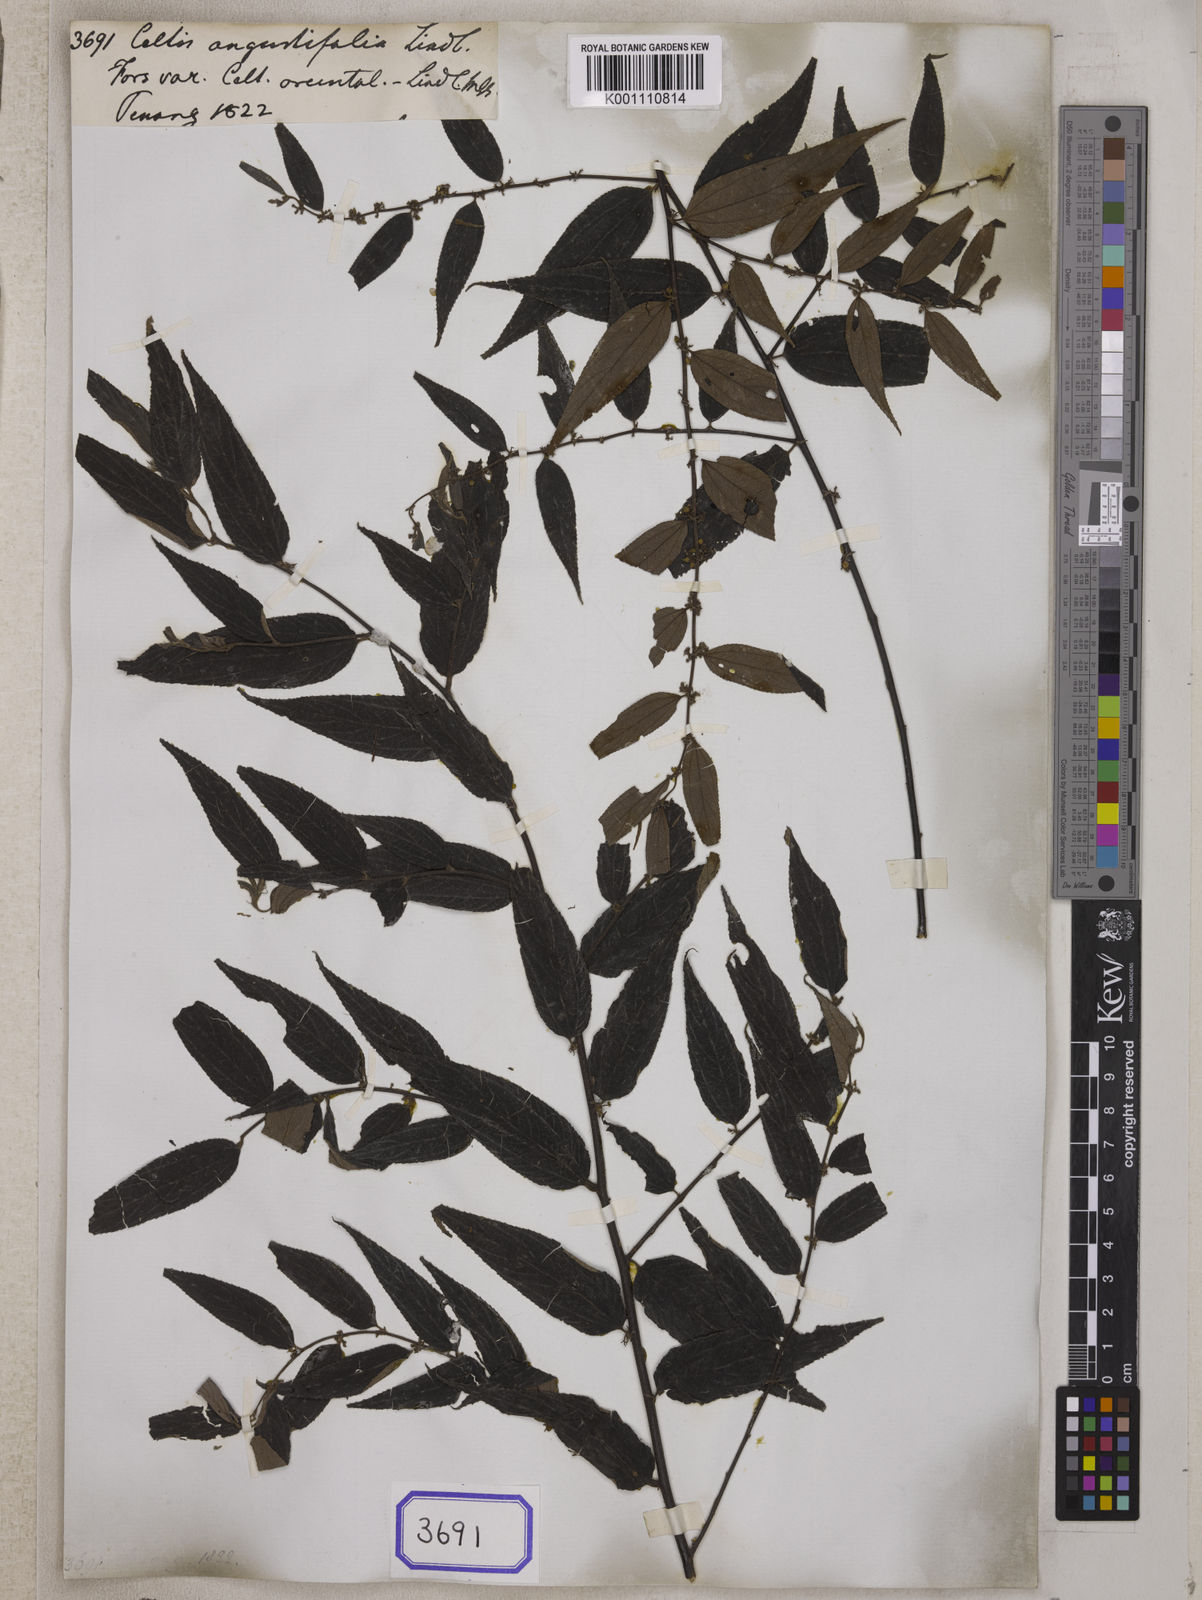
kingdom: Plantae
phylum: Tracheophyta
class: Magnoliopsida
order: Rosales
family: Cannabaceae
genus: Celtis
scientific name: Celtis
